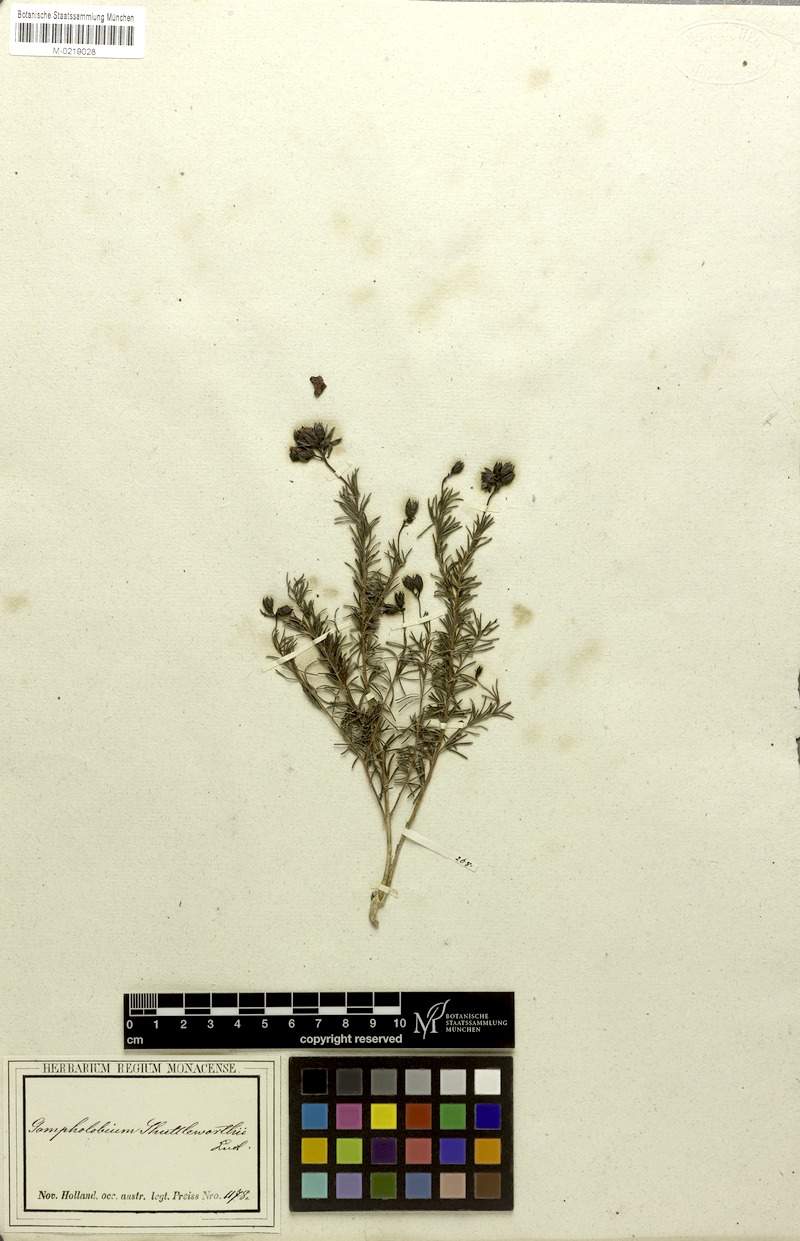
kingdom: Plantae
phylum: Tracheophyta
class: Magnoliopsida
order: Fabales
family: Fabaceae
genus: Gompholobium
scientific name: Gompholobium shuttleworthii
